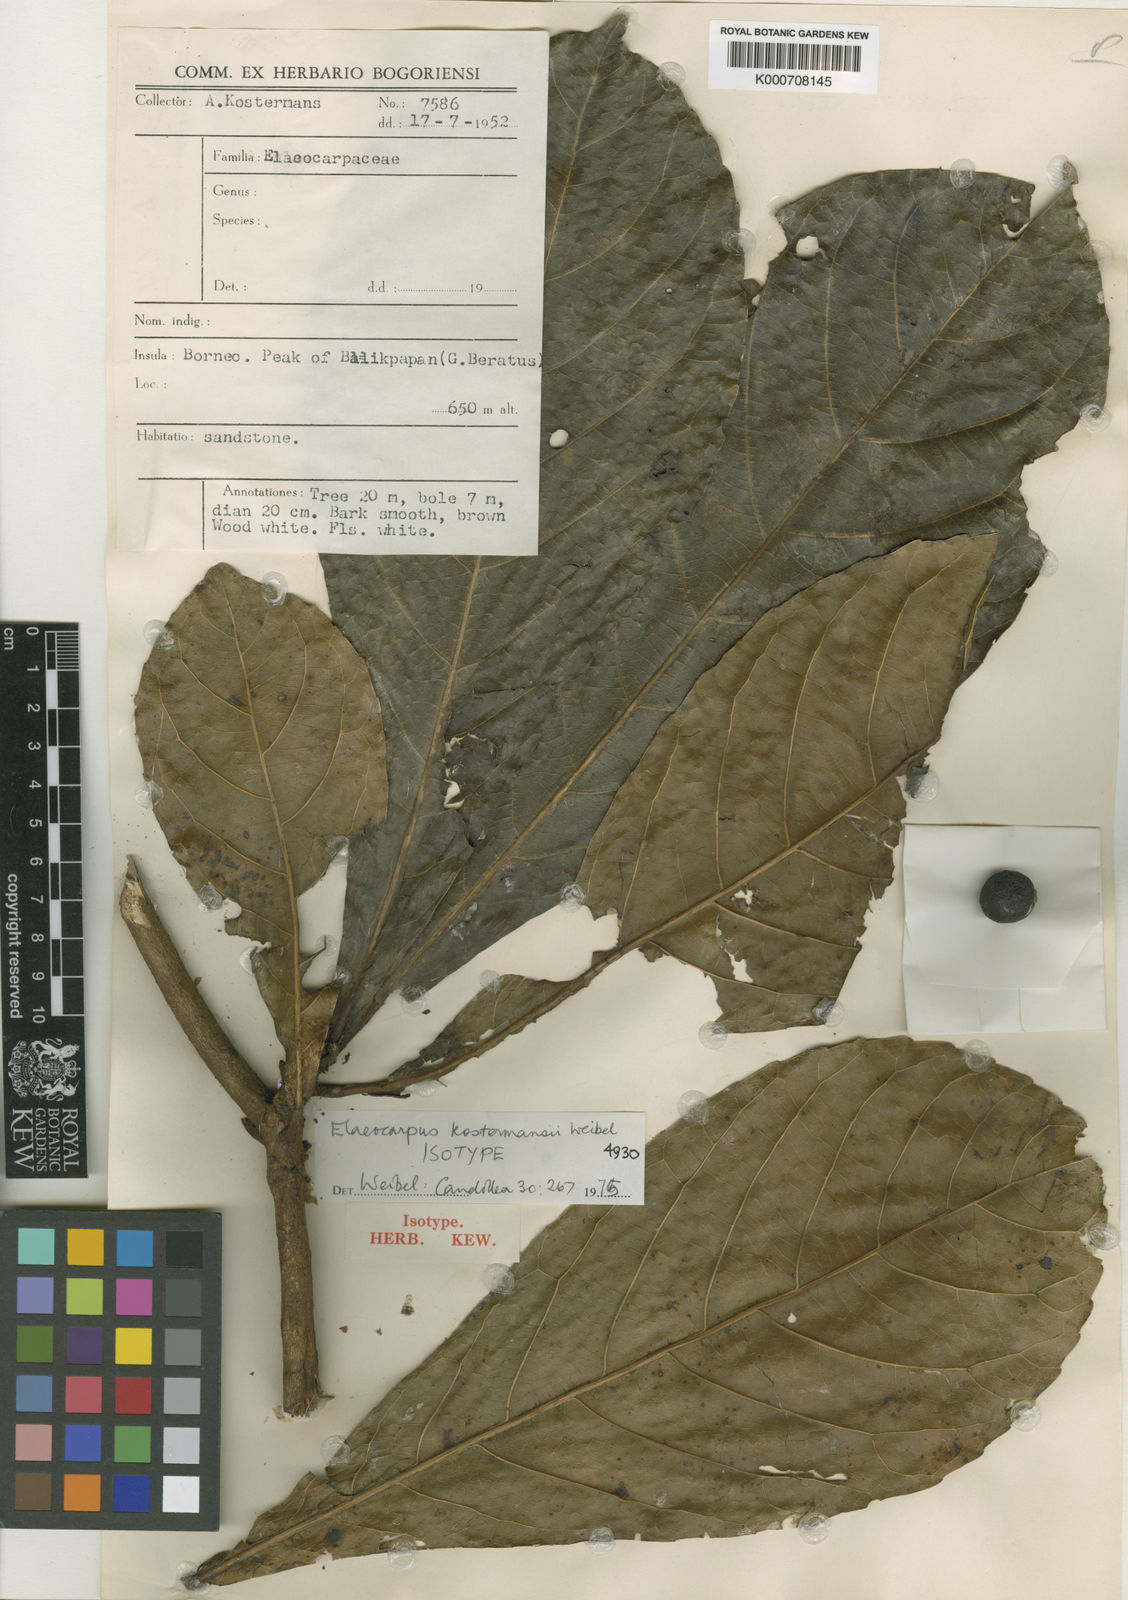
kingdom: Plantae
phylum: Tracheophyta
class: Magnoliopsida
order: Oxalidales
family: Elaeocarpaceae
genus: Elaeocarpus
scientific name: Elaeocarpus kostermansii
